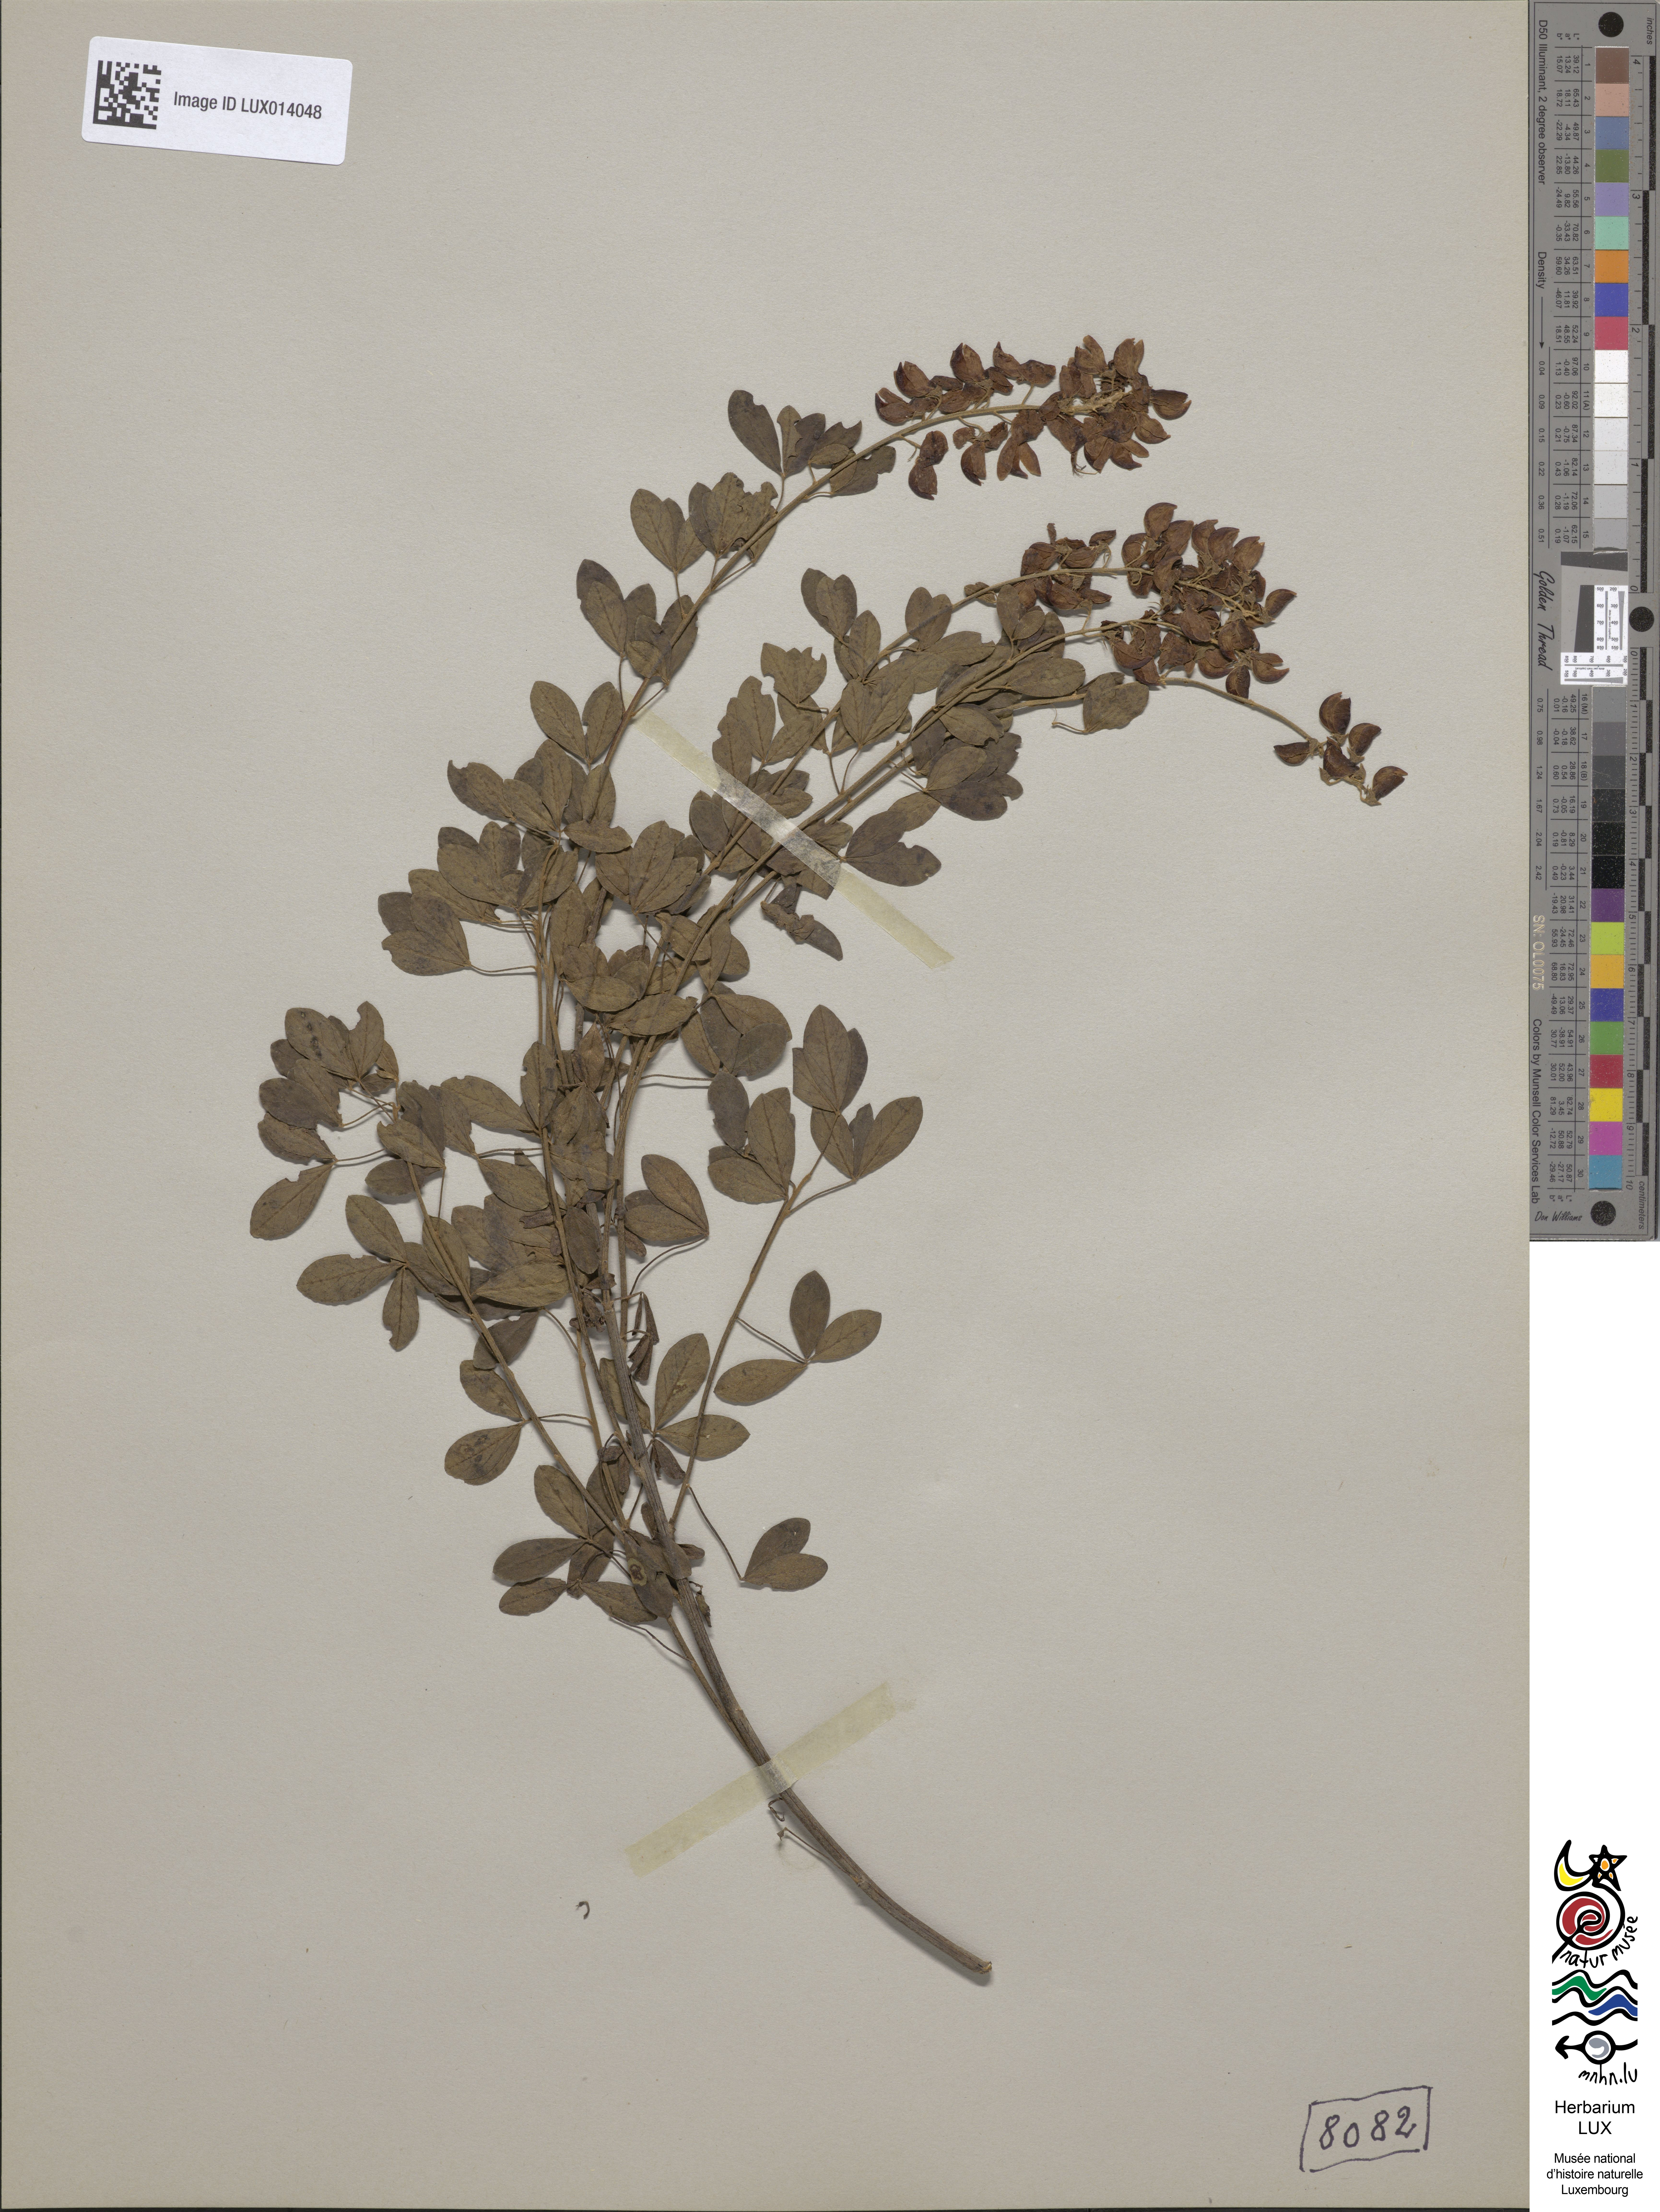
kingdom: Plantae
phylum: Tracheophyta
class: Magnoliopsida
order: Fabales
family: Fabaceae
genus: Cytisus
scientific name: Cytisus nigricans
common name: Black broom
